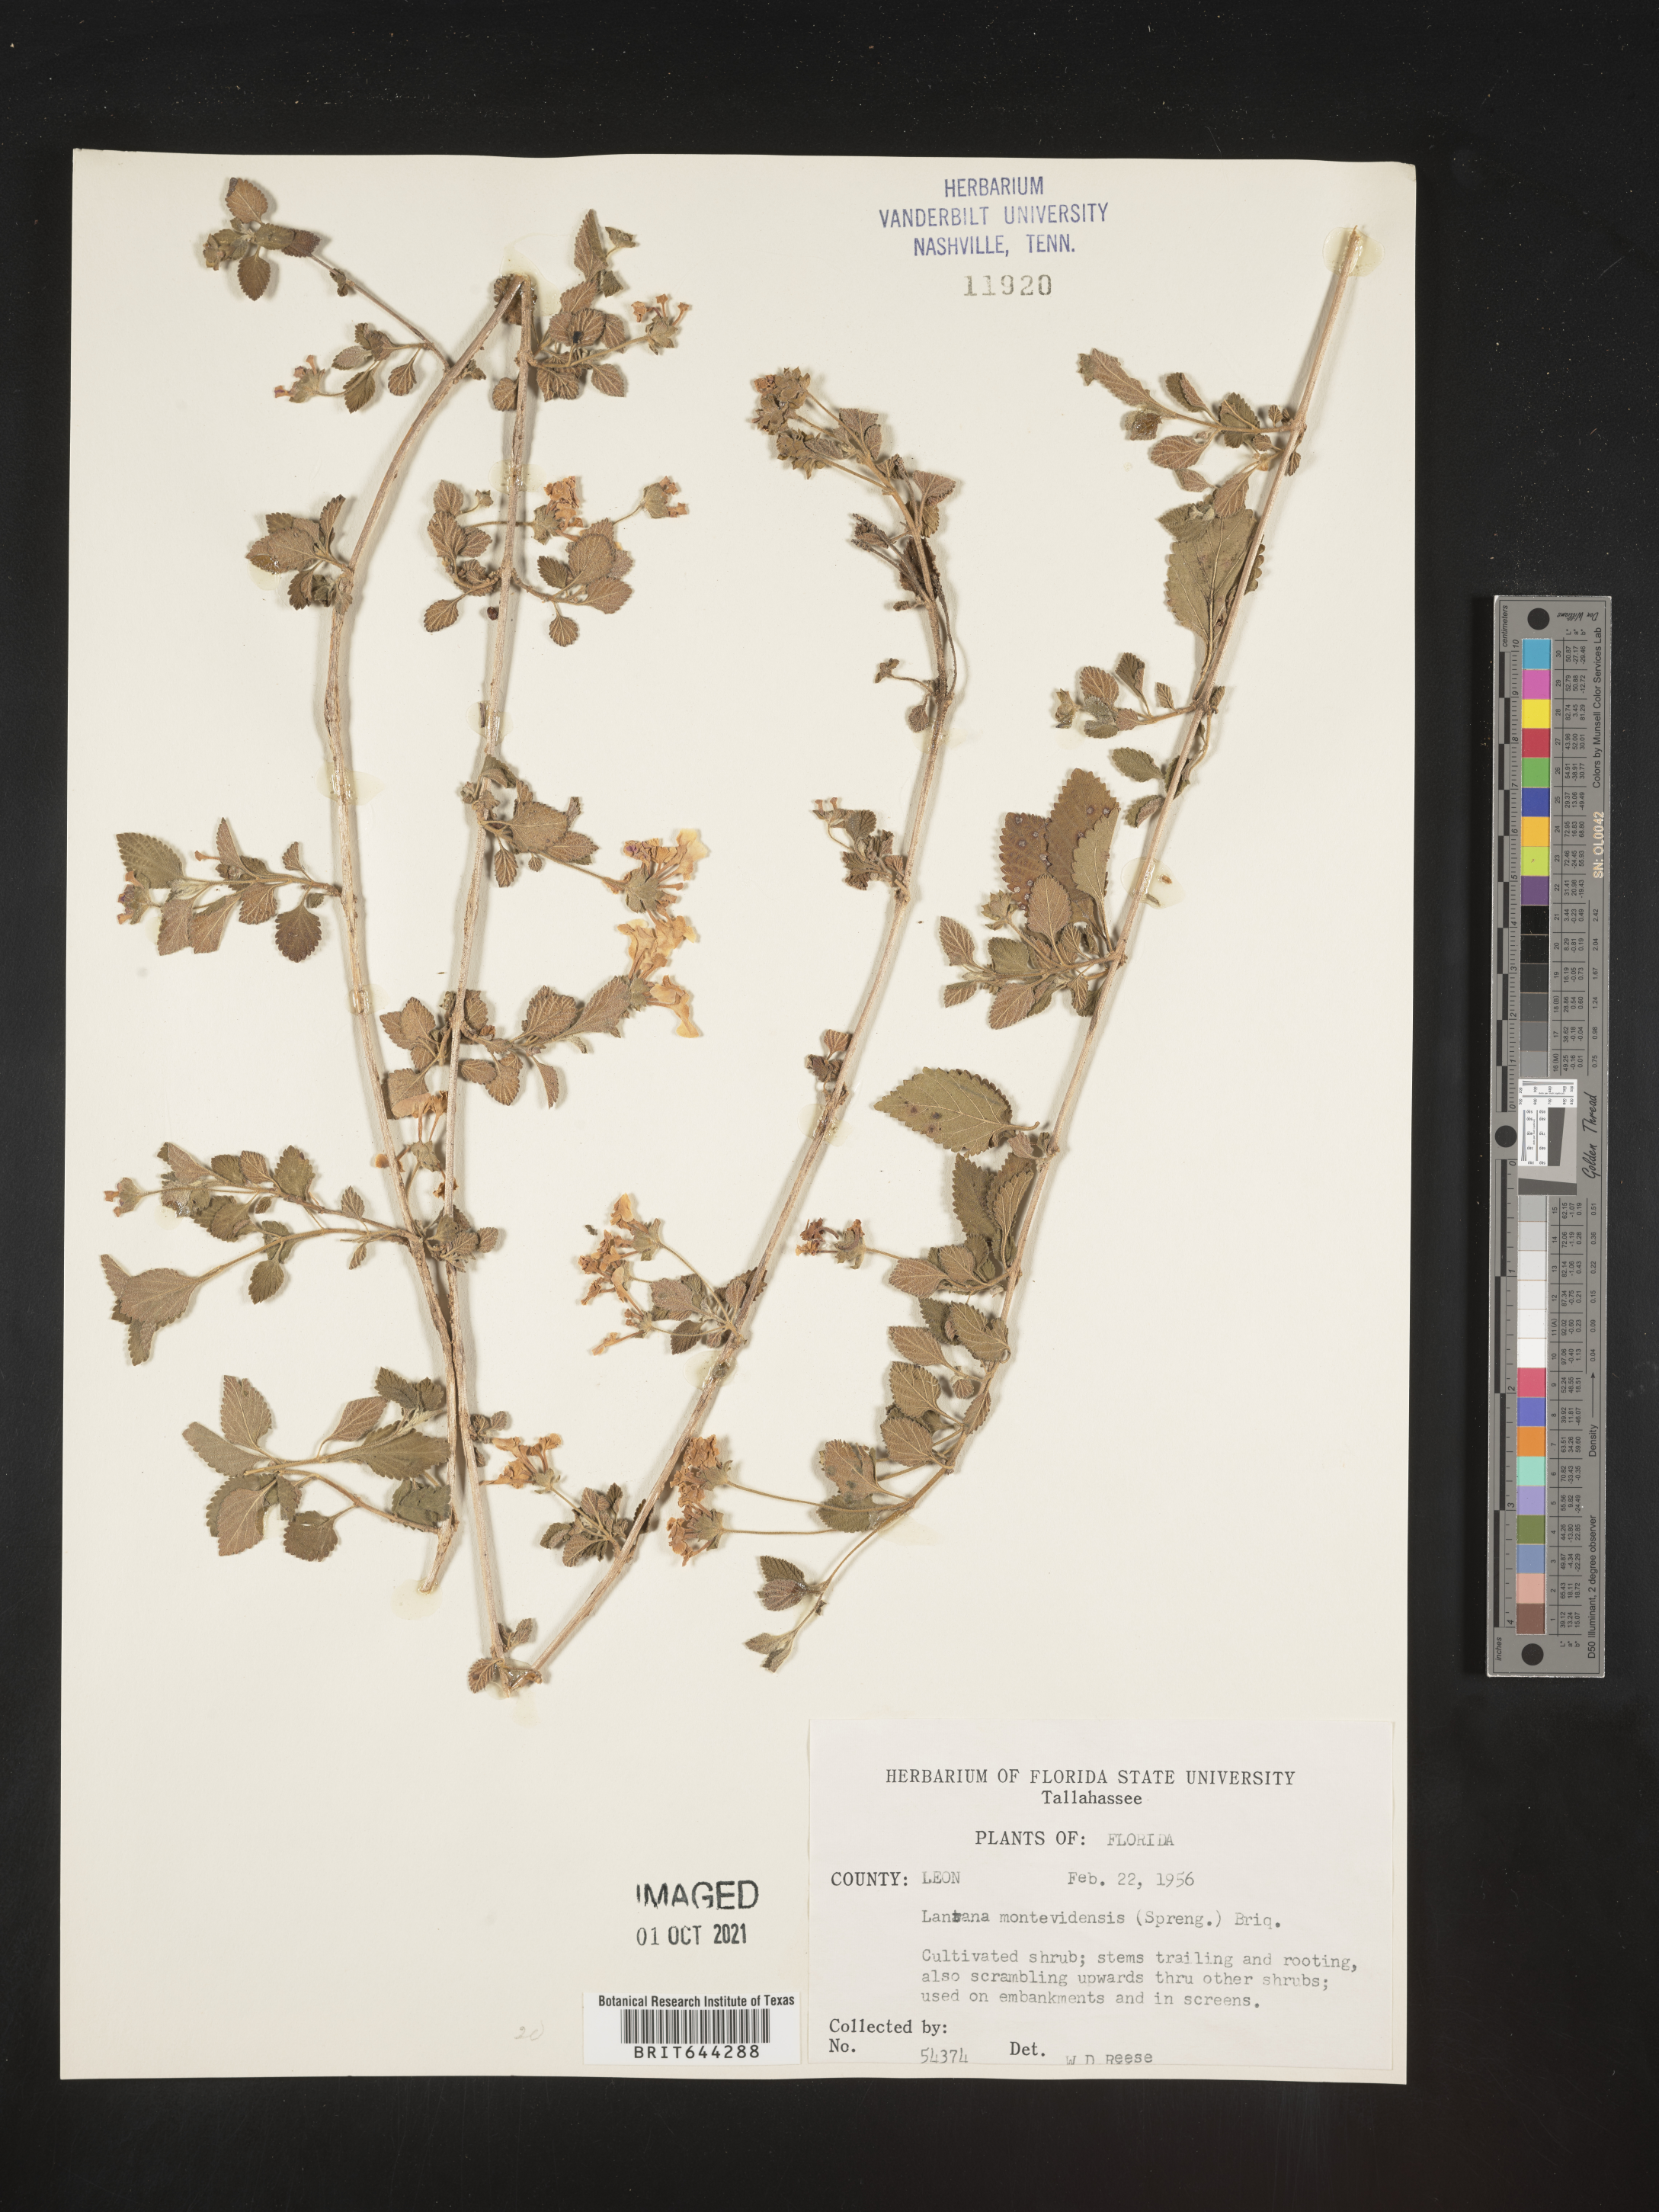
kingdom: Plantae
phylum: Tracheophyta
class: Magnoliopsida
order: Lamiales
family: Verbenaceae
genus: Lantana
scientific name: Lantana
